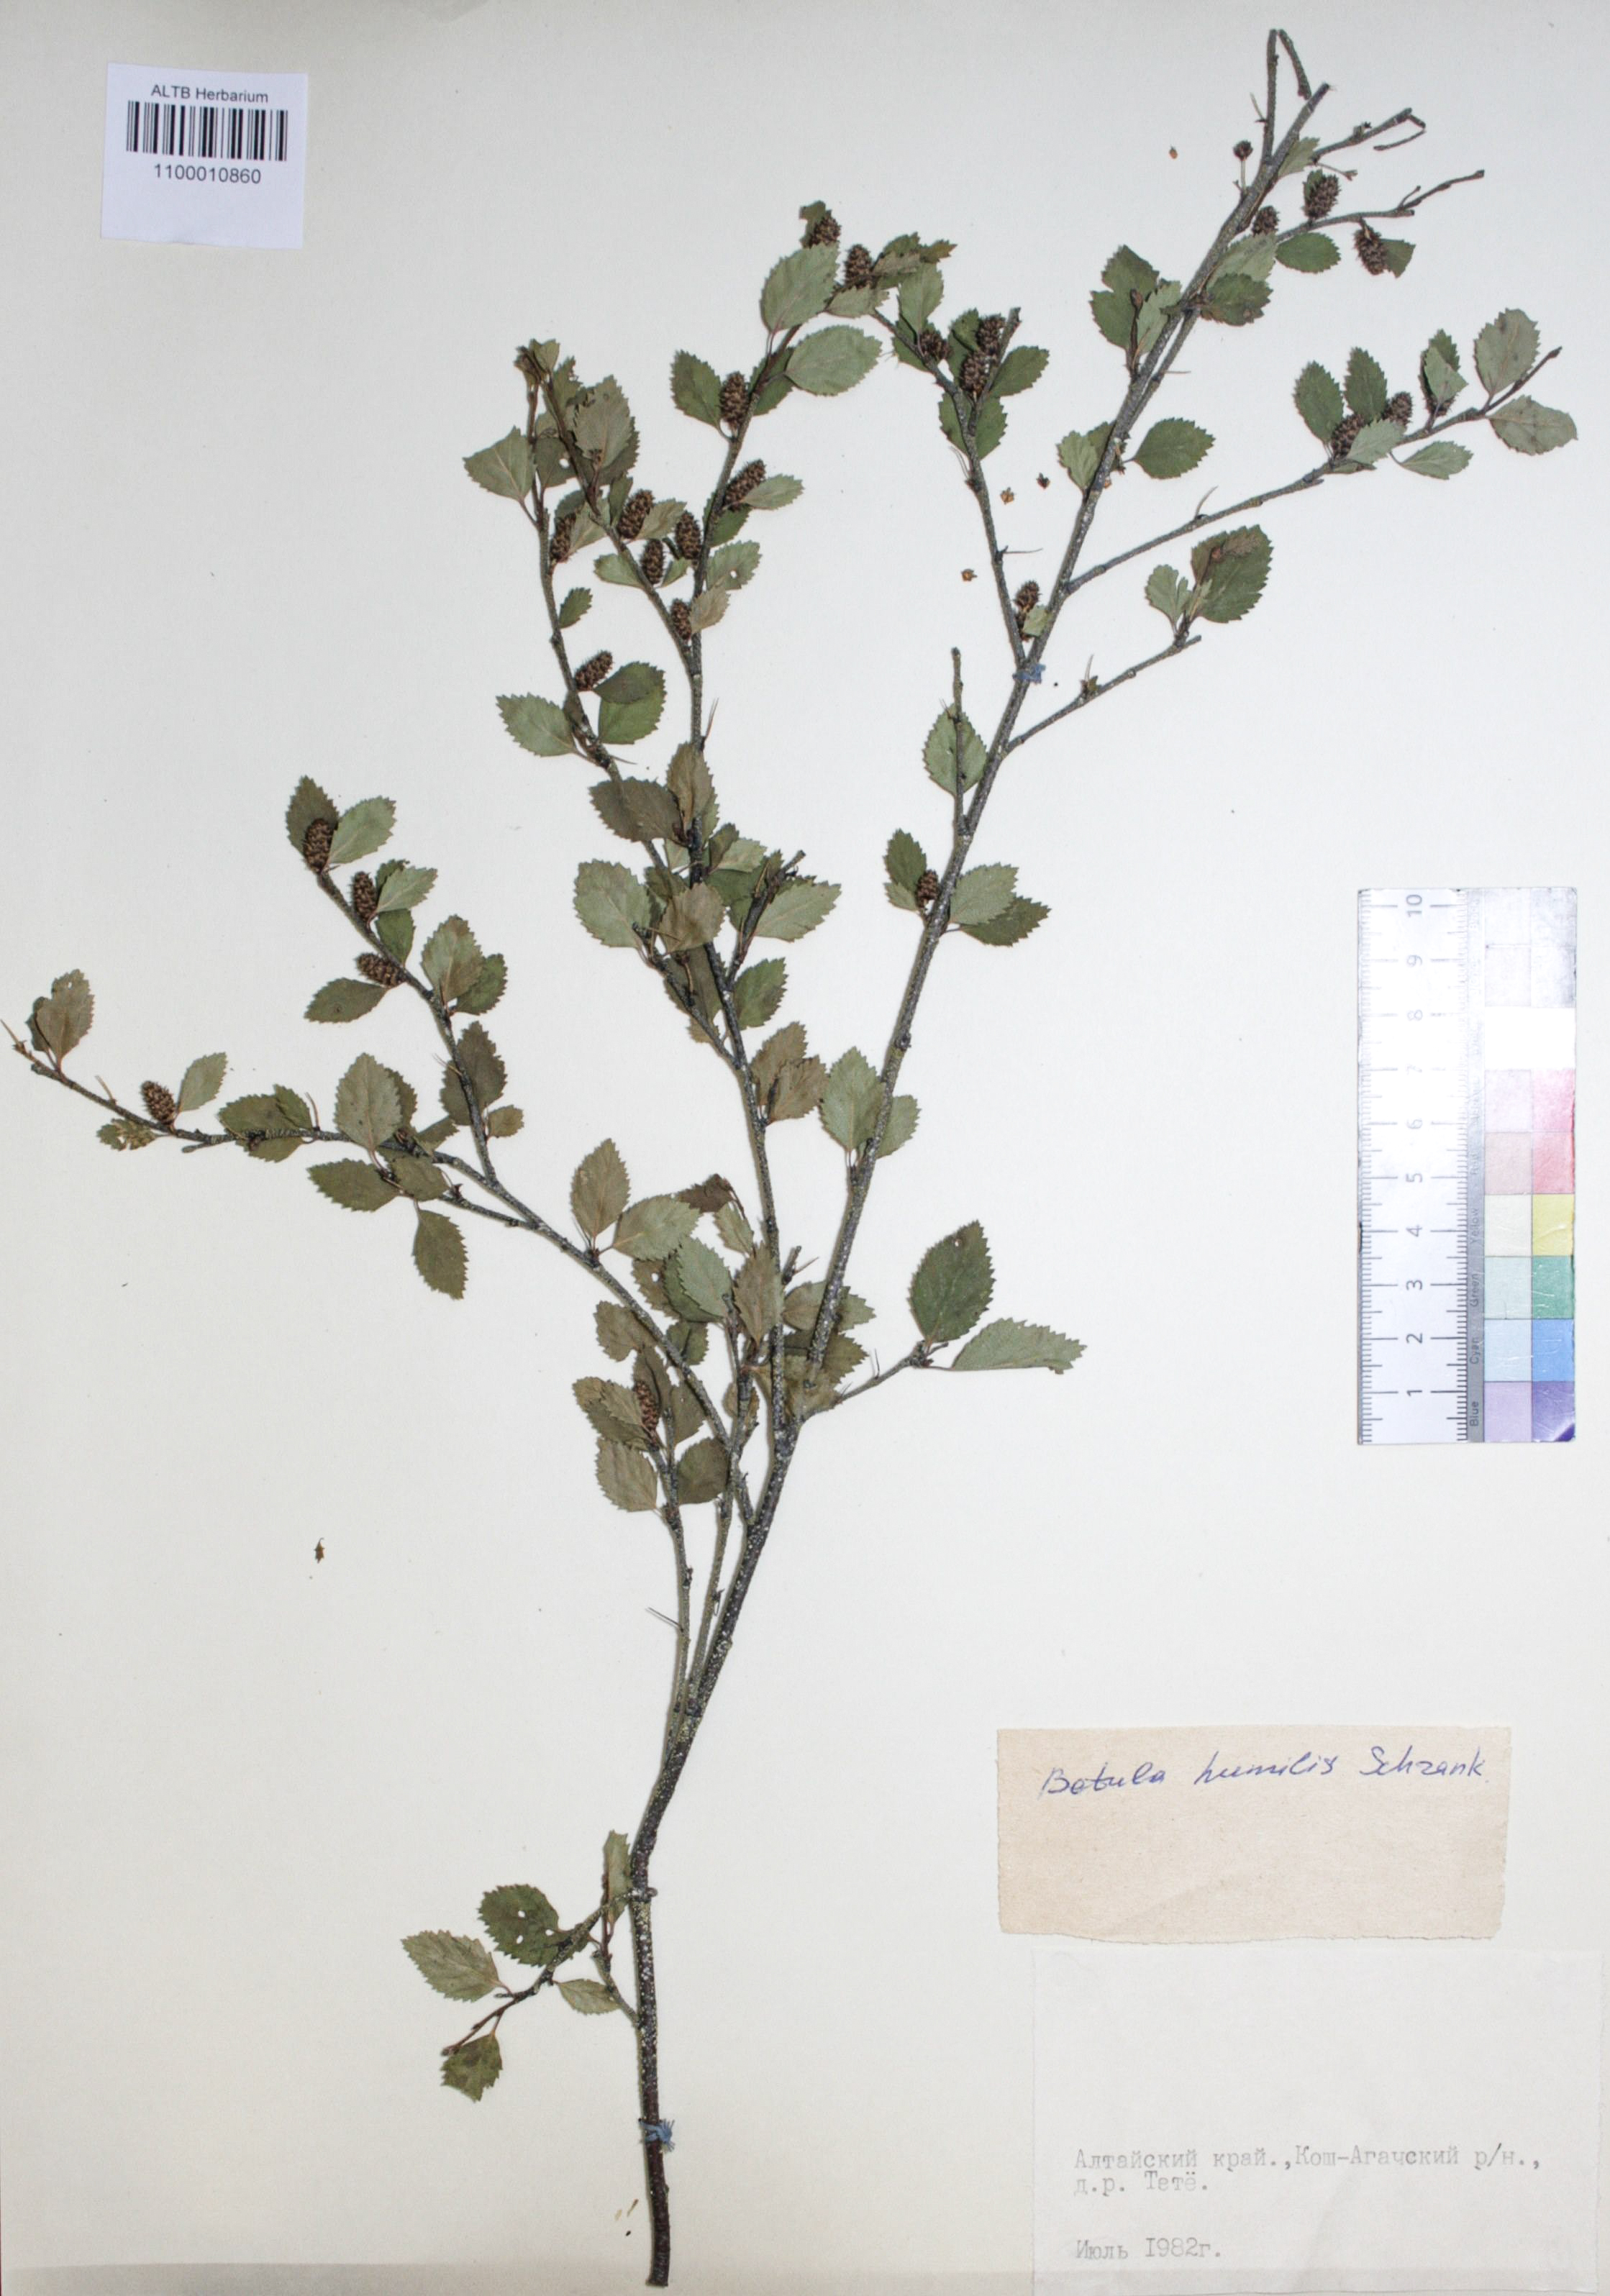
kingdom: Plantae
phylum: Tracheophyta
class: Magnoliopsida
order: Fagales
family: Betulaceae
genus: Betula
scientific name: Betula humilis
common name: Shrubby birch
